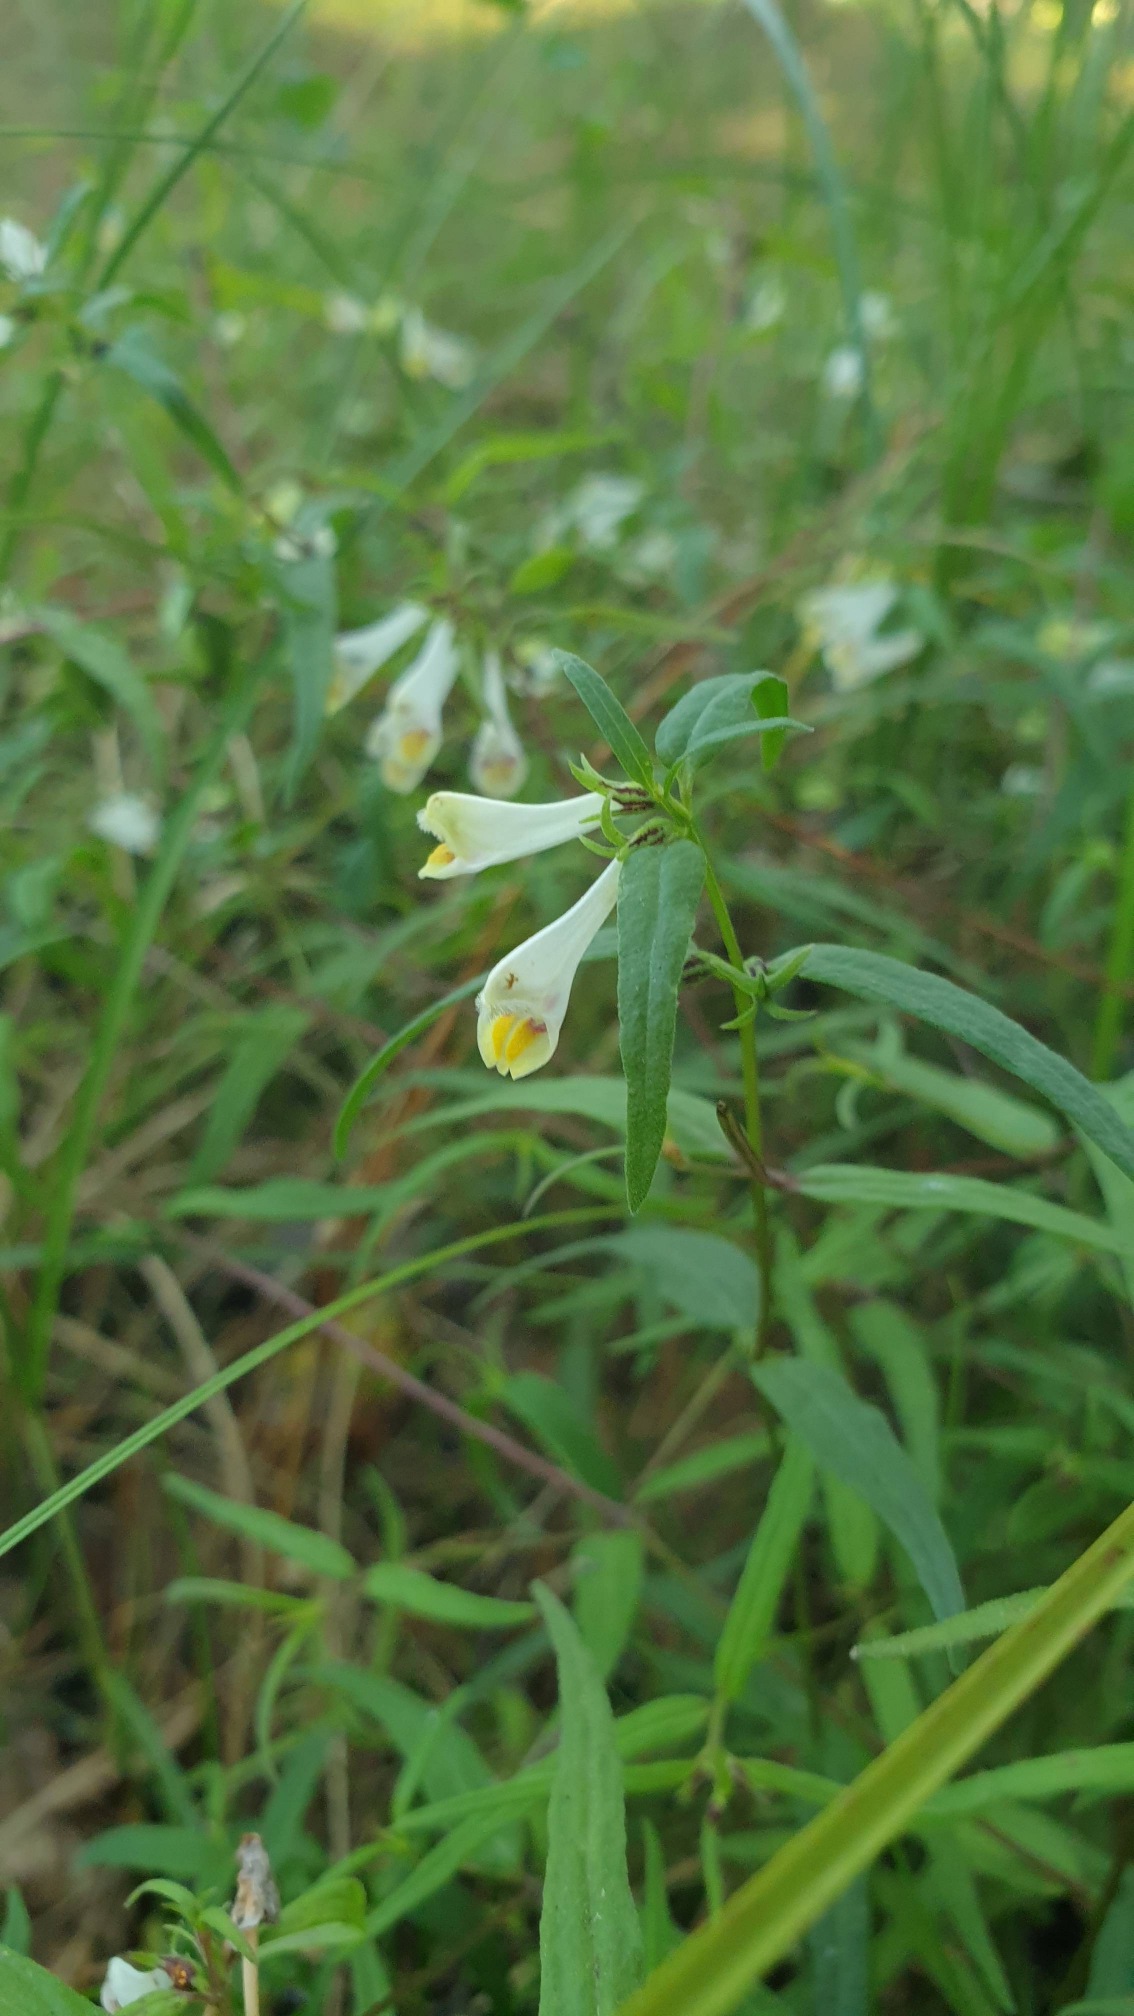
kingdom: Plantae
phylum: Tracheophyta
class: Magnoliopsida
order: Lamiales
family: Orobanchaceae
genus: Melampyrum
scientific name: Melampyrum pratense
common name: Almindelig kohvede
